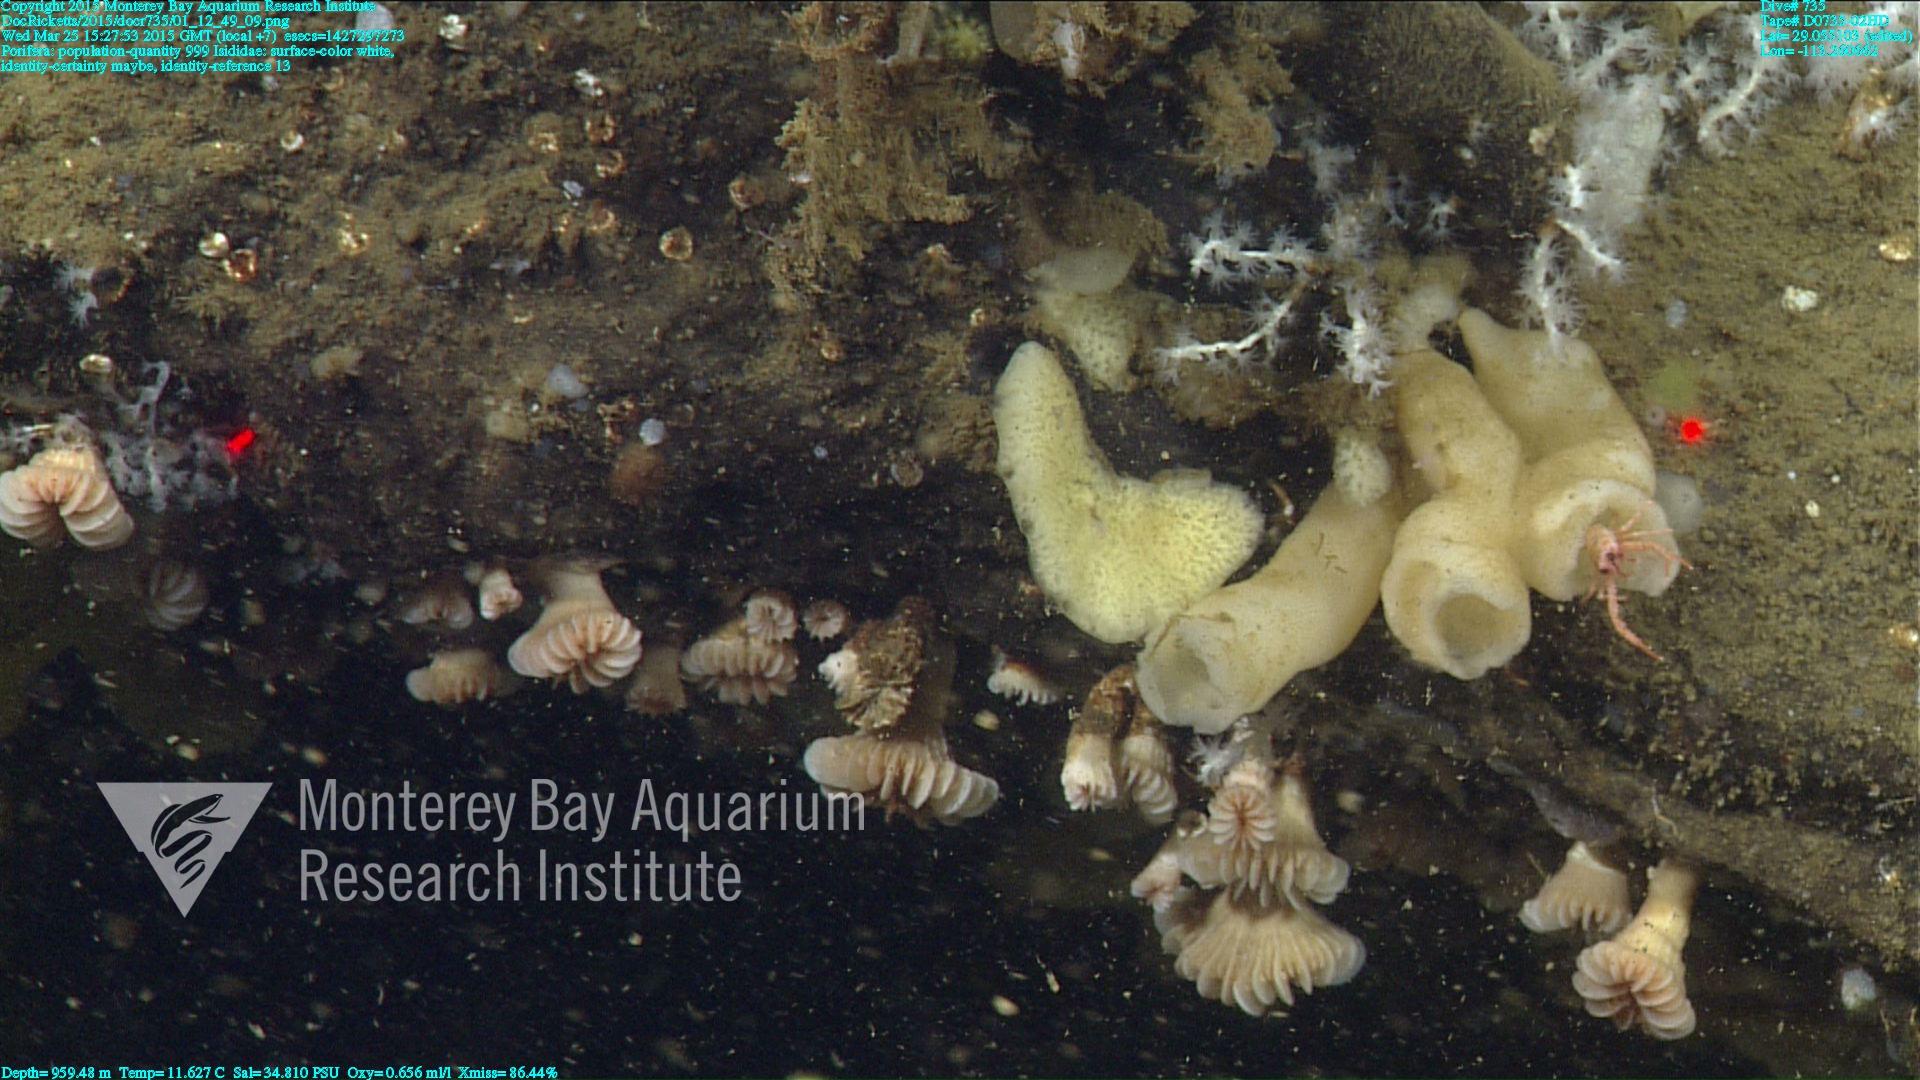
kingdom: Animalia
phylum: Cnidaria
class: Anthozoa
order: Scleralcyonacea
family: Keratoisididae
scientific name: Keratoisididae
